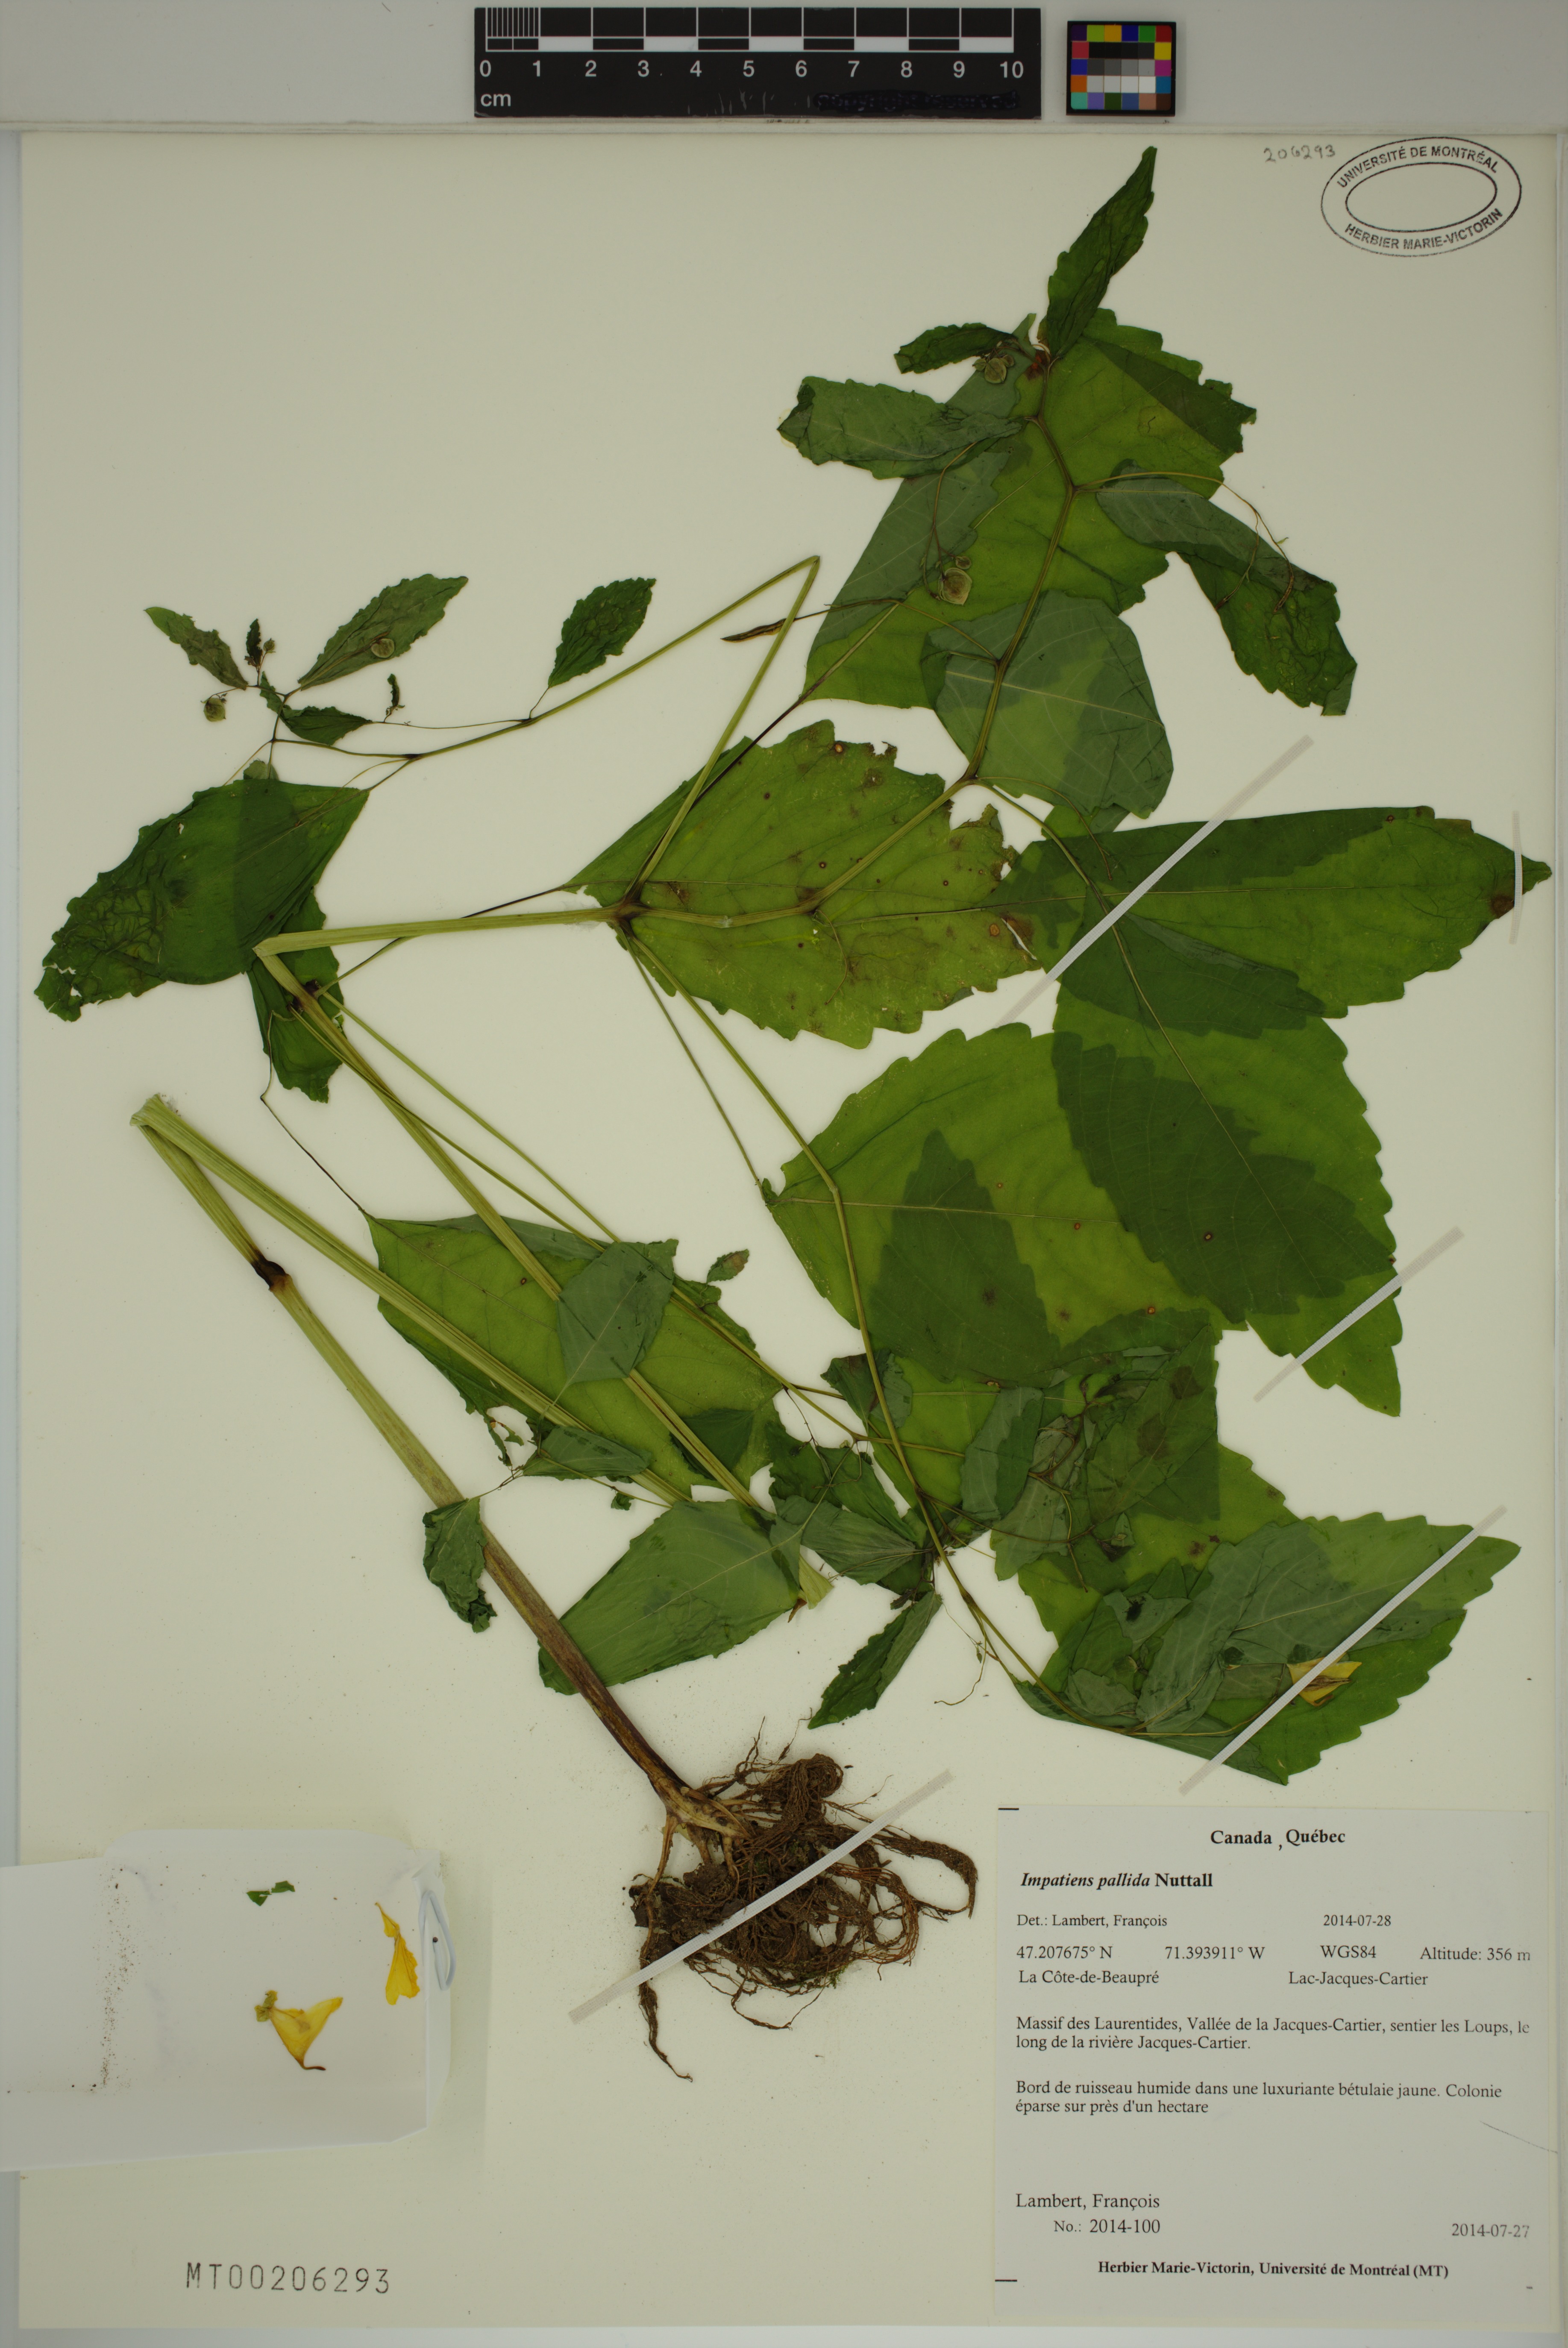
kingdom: Plantae
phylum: Tracheophyta
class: Magnoliopsida
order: Ericales
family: Balsaminaceae
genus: Impatiens
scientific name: Impatiens pallida
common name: Pale snapweed
